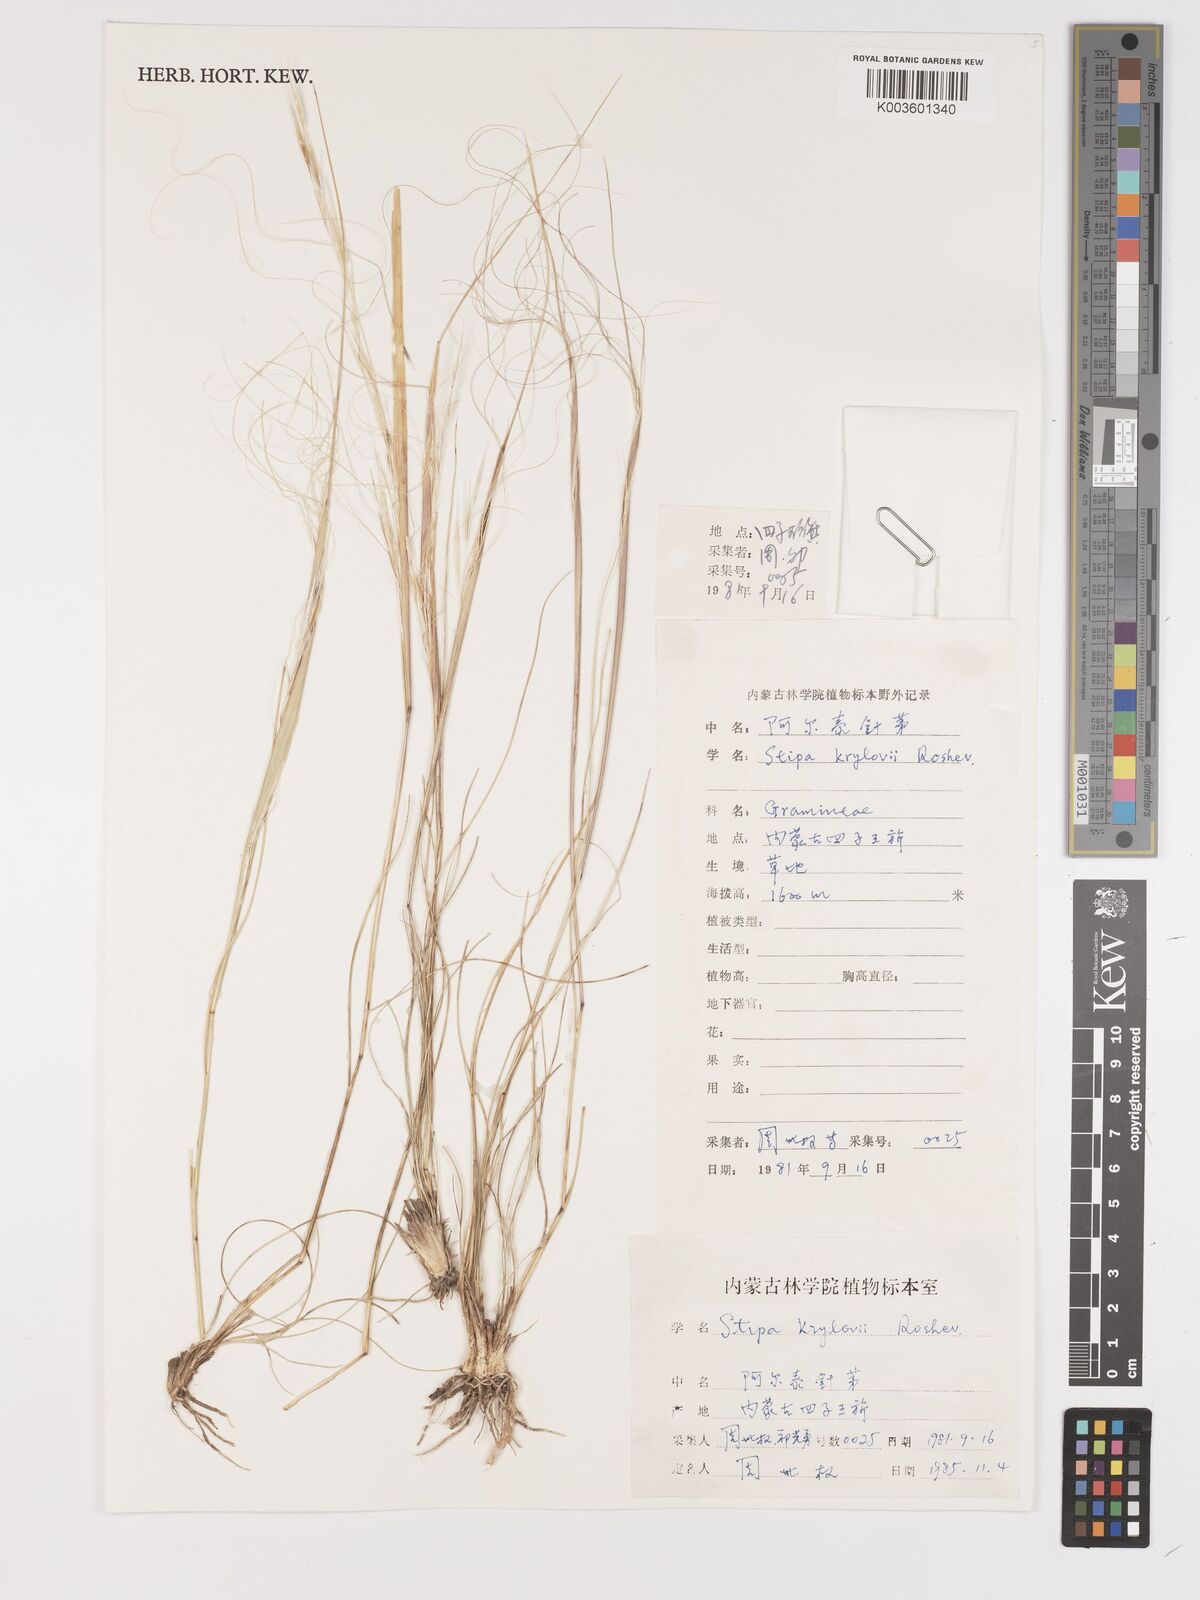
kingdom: Plantae
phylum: Tracheophyta
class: Liliopsida
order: Poales
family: Poaceae
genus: Stipa
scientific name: Stipa krylovii
